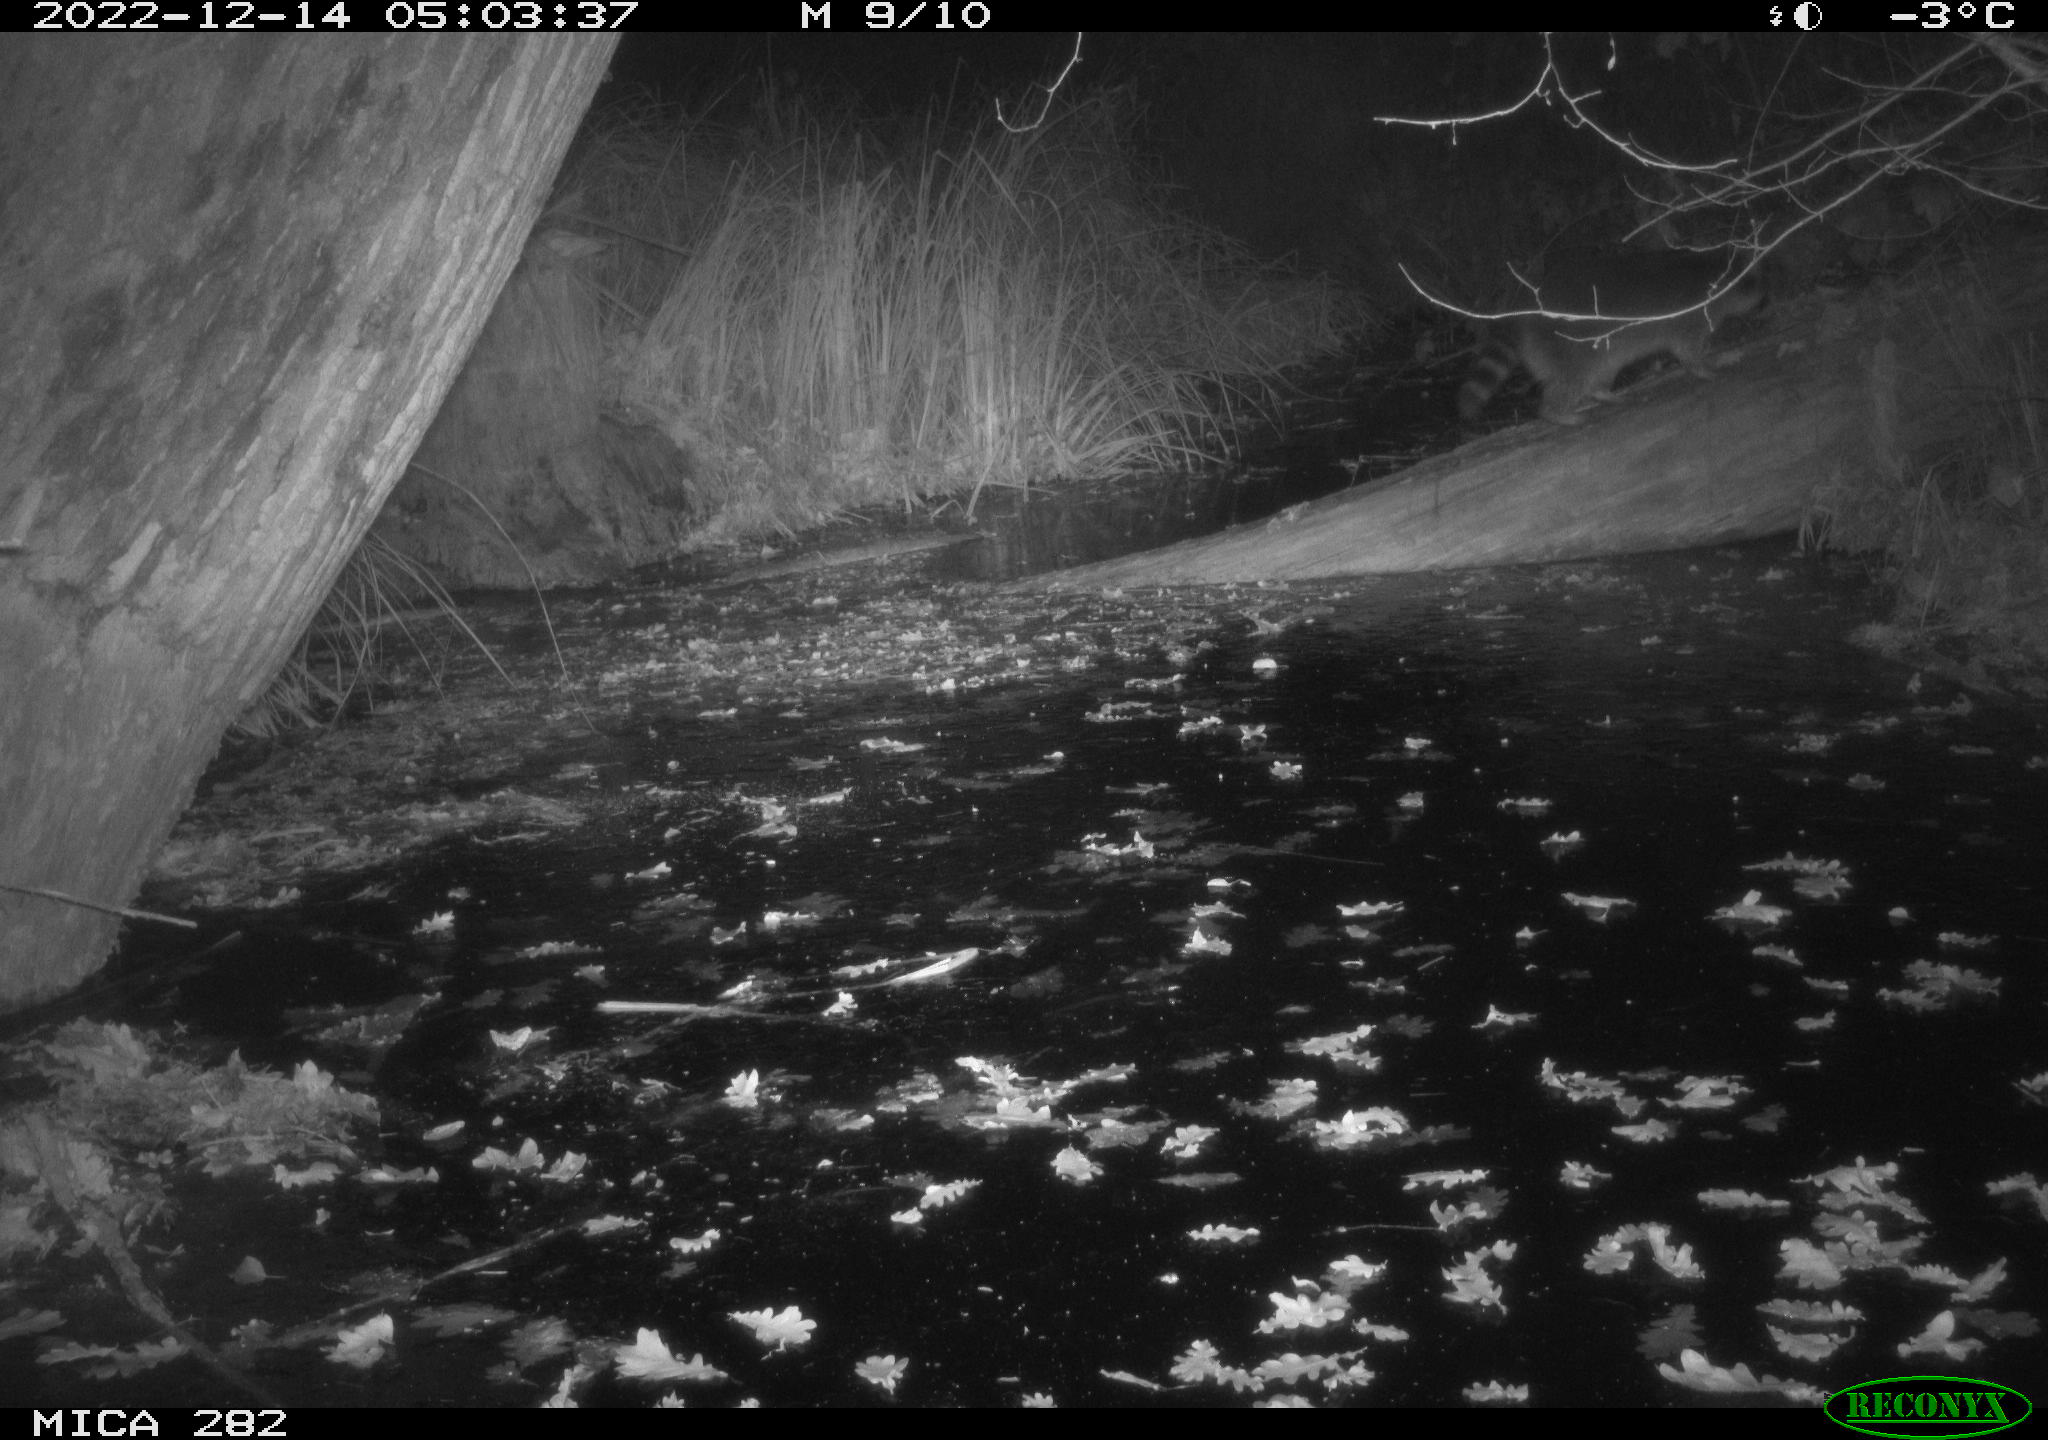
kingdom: Animalia
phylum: Chordata
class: Mammalia
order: Carnivora
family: Procyonidae
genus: Procyon
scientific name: Procyon lotor
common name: Raccoon
